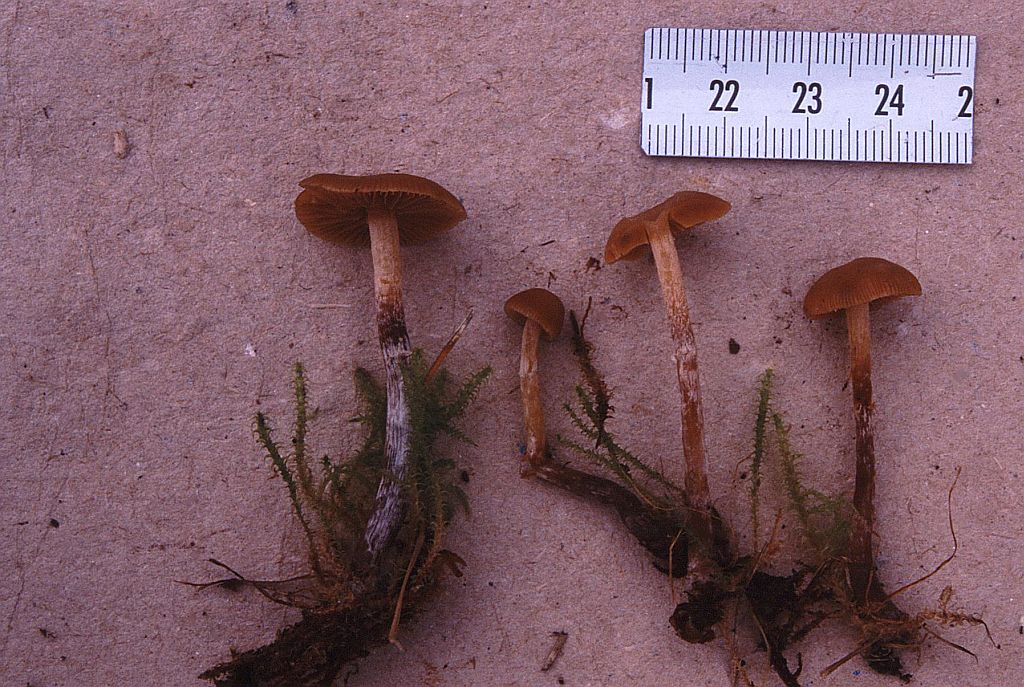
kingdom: Fungi
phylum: Basidiomycota
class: Agaricomycetes
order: Agaricales
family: Hymenogastraceae
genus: Galerina
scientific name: Galerina badipes
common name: brunstokket hjelmhat
